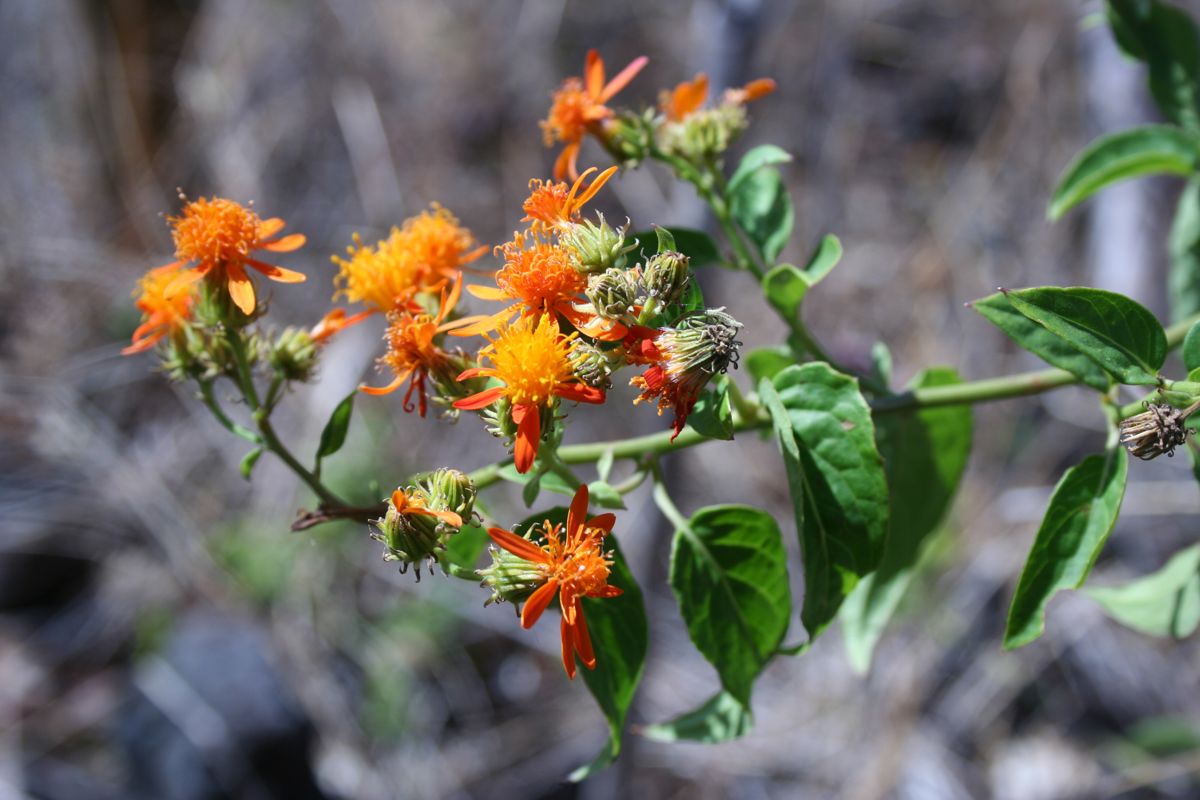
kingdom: Plantae
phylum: Tracheophyta
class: Magnoliopsida
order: Asterales
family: Asteraceae
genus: Pseudogynoxys
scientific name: Pseudogynoxys chenopodioides
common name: Mexican flamevine
